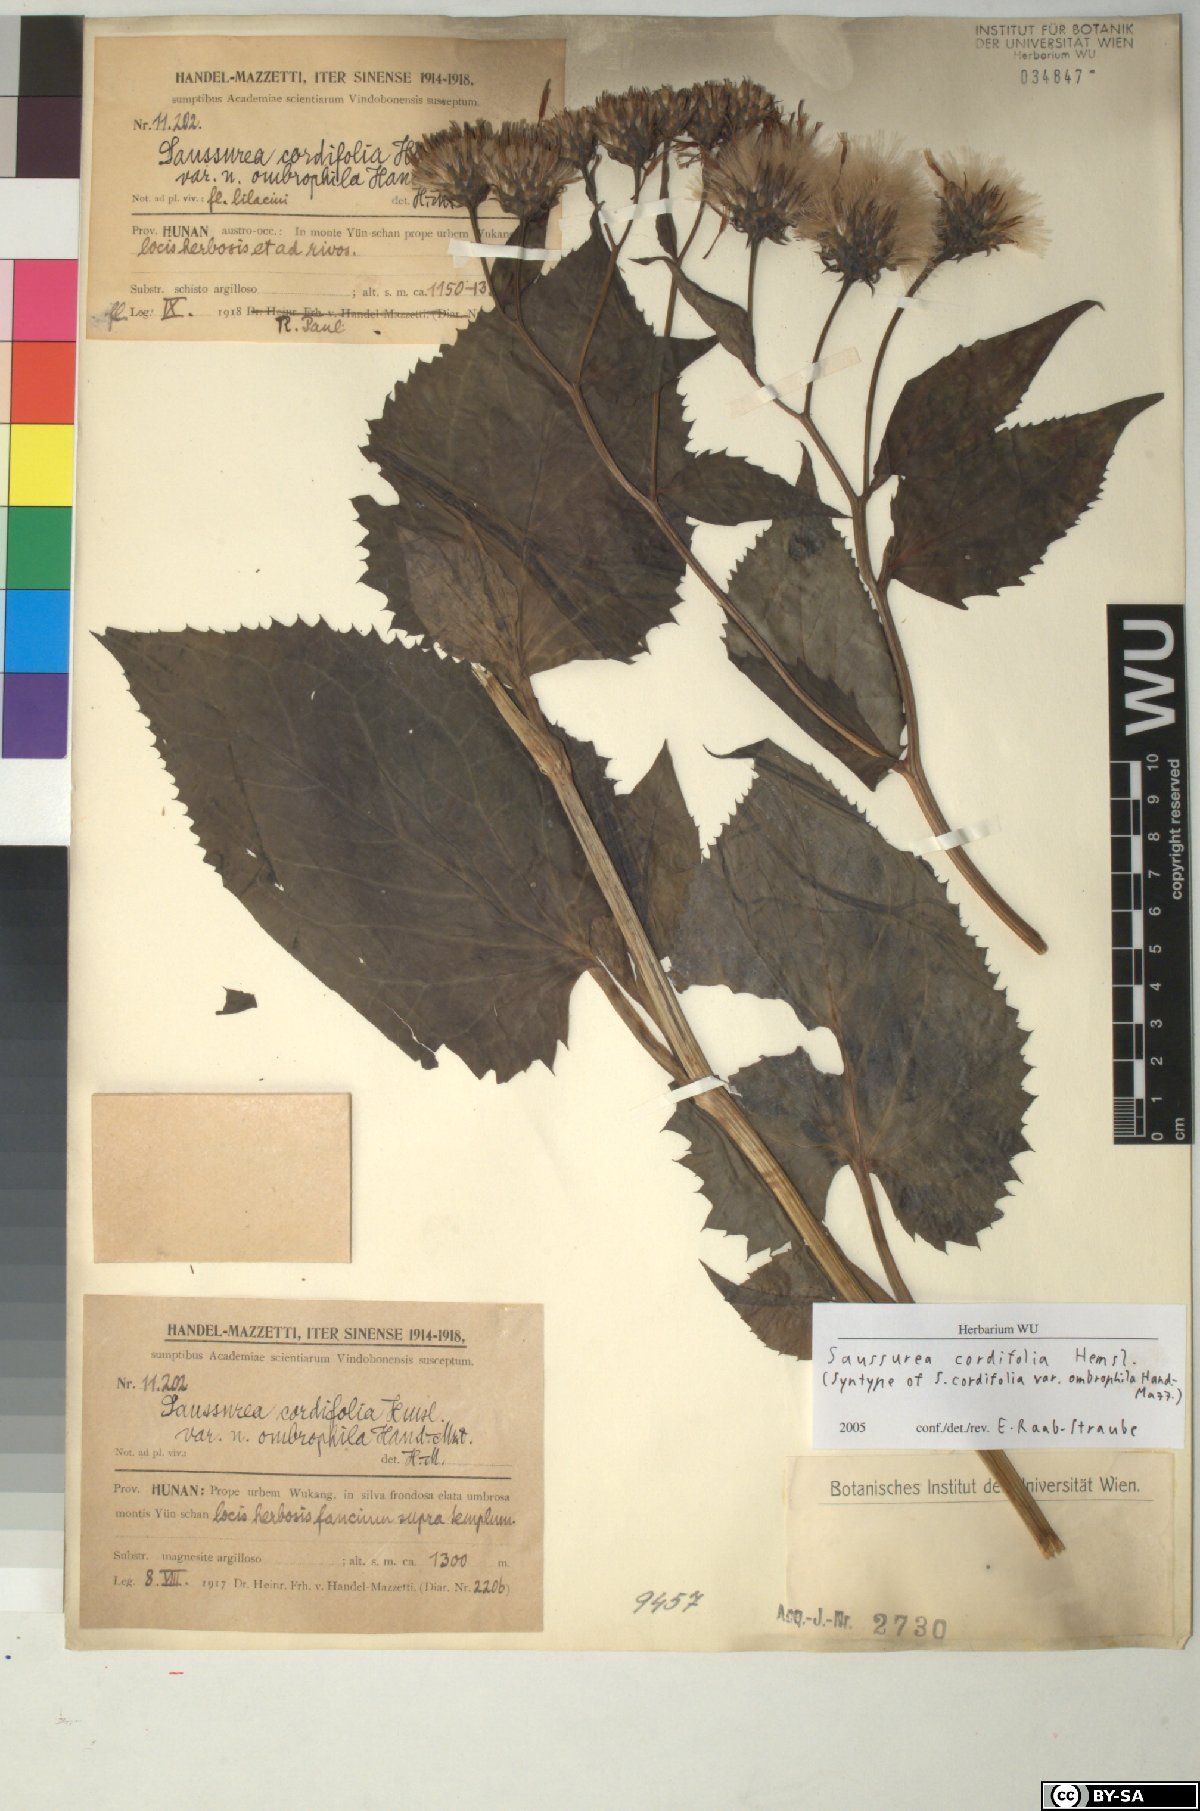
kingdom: Plantae
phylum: Tracheophyta
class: Magnoliopsida
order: Asterales
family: Asteraceae
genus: Saussurea
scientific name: Saussurea cordifolia
